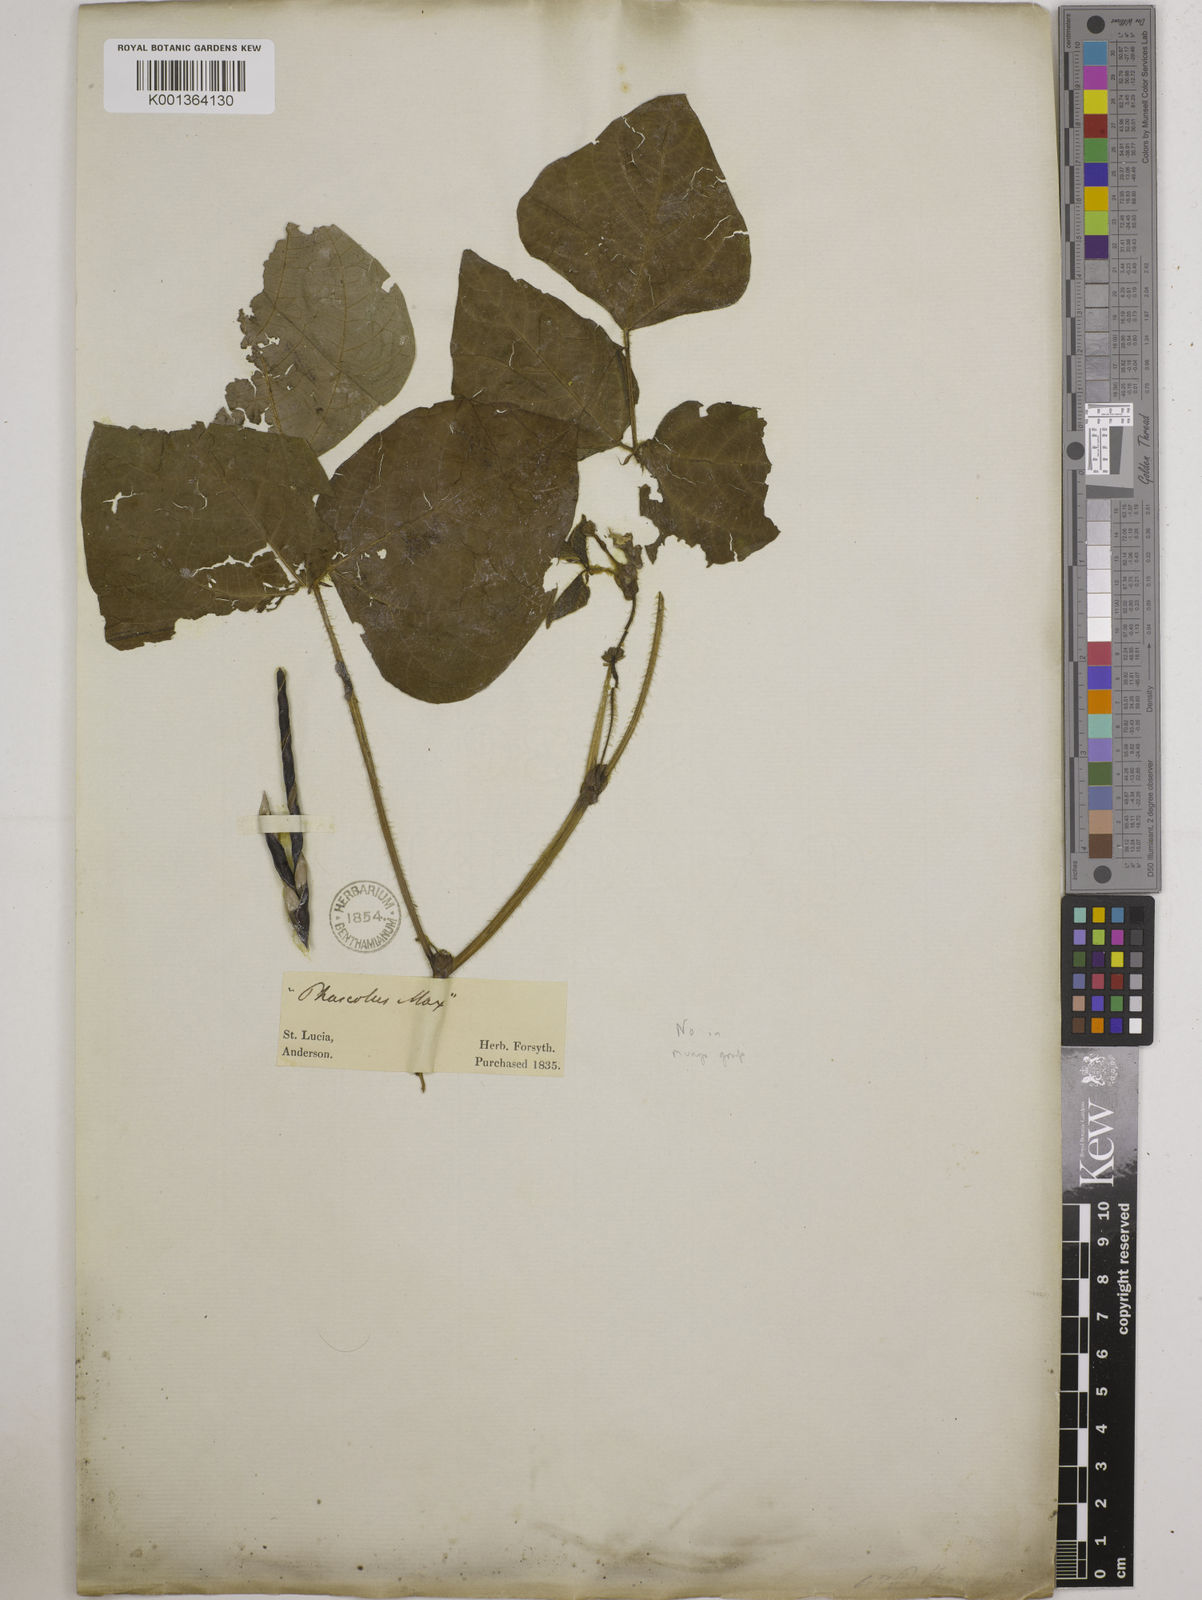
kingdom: Plantae
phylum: Tracheophyta
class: Magnoliopsida
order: Fabales
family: Fabaceae
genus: Vigna
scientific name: Vigna radiata
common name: Mung-bean
